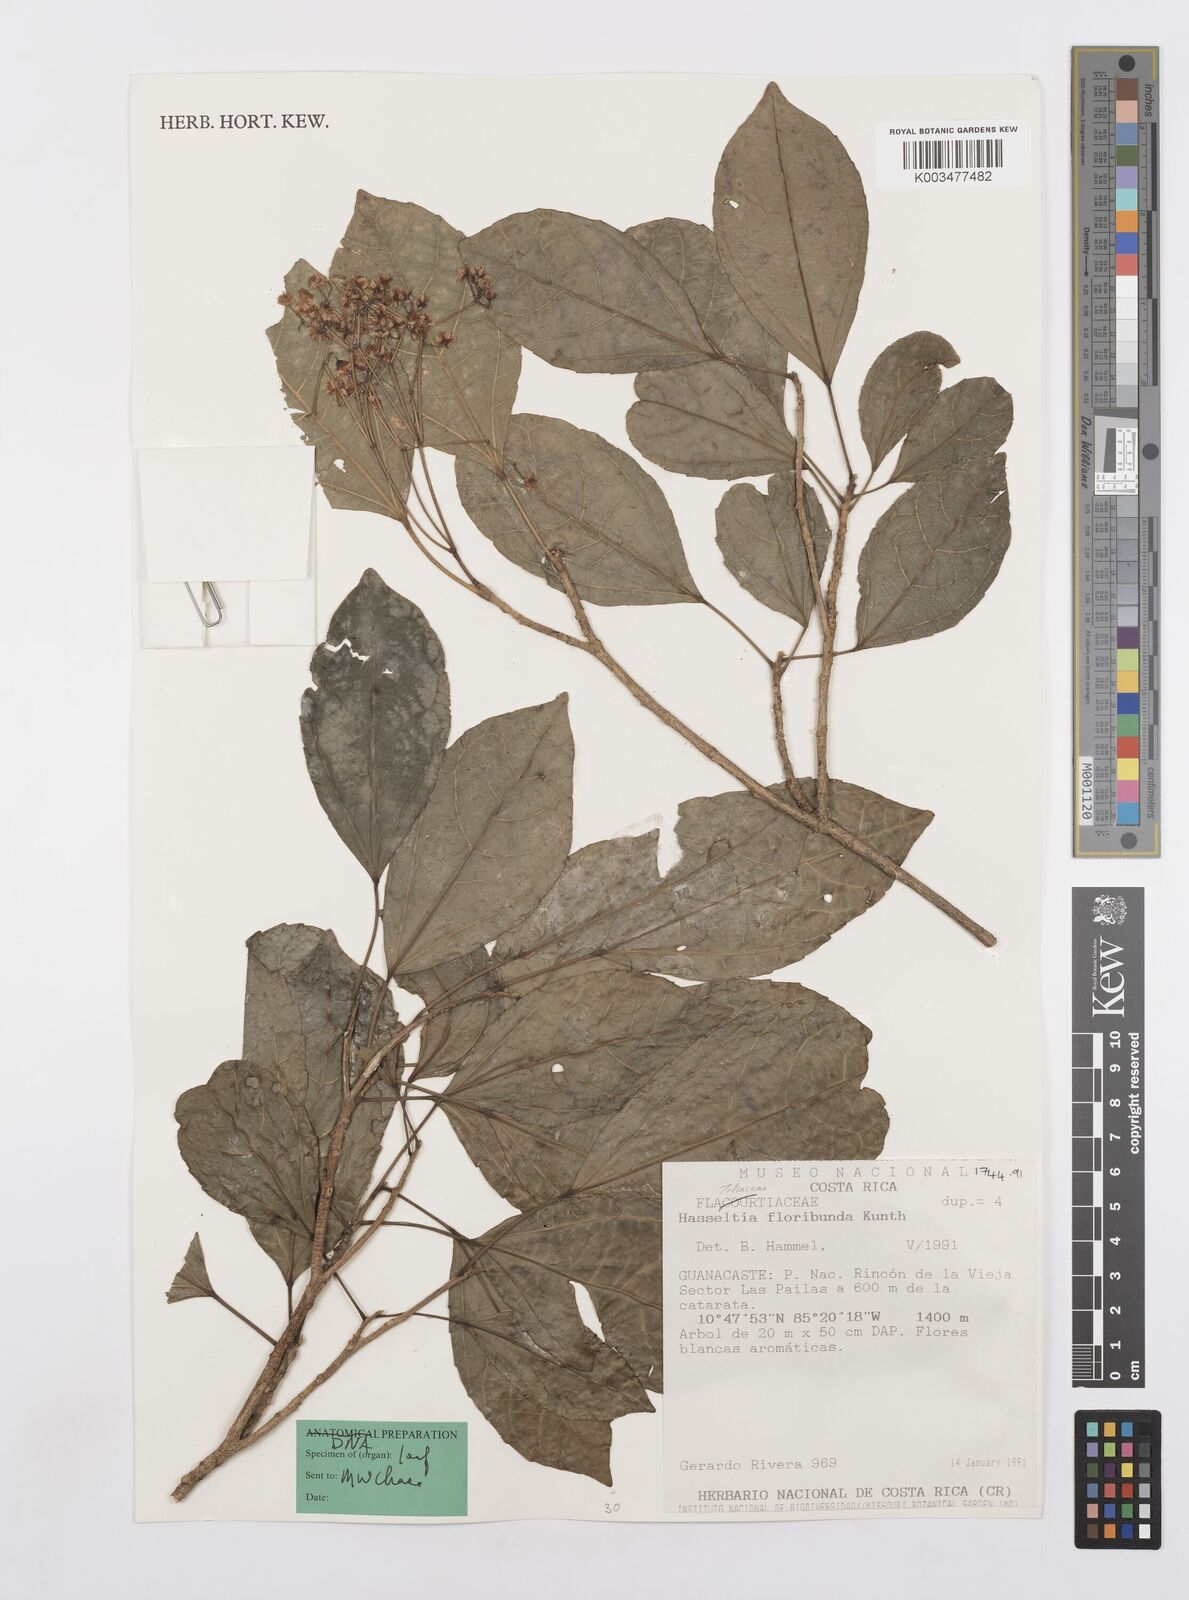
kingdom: Plantae
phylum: Tracheophyta
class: Magnoliopsida
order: Malpighiales
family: Salicaceae
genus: Hasseltia
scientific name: Hasseltia floribunda
